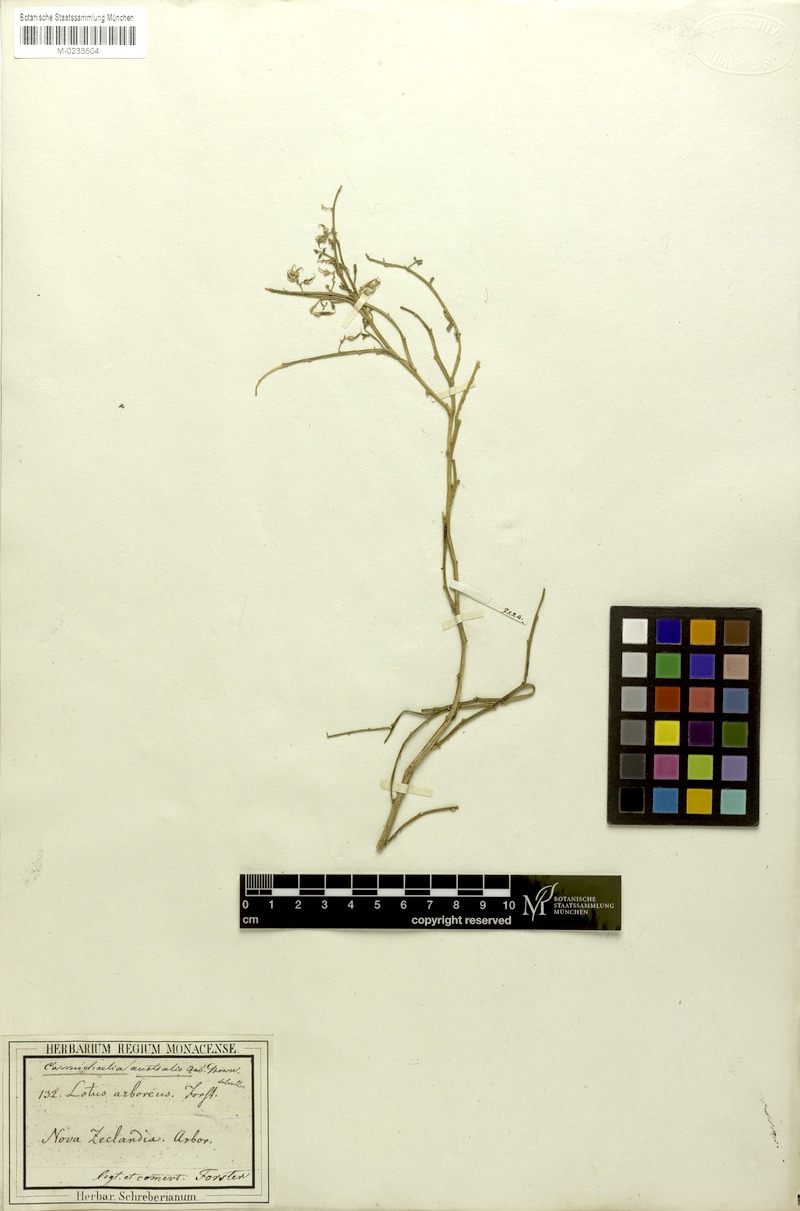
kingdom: Plantae
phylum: Tracheophyta
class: Magnoliopsida
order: Fabales
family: Fabaceae
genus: Carmichaelia
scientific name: Carmichaelia arborea
